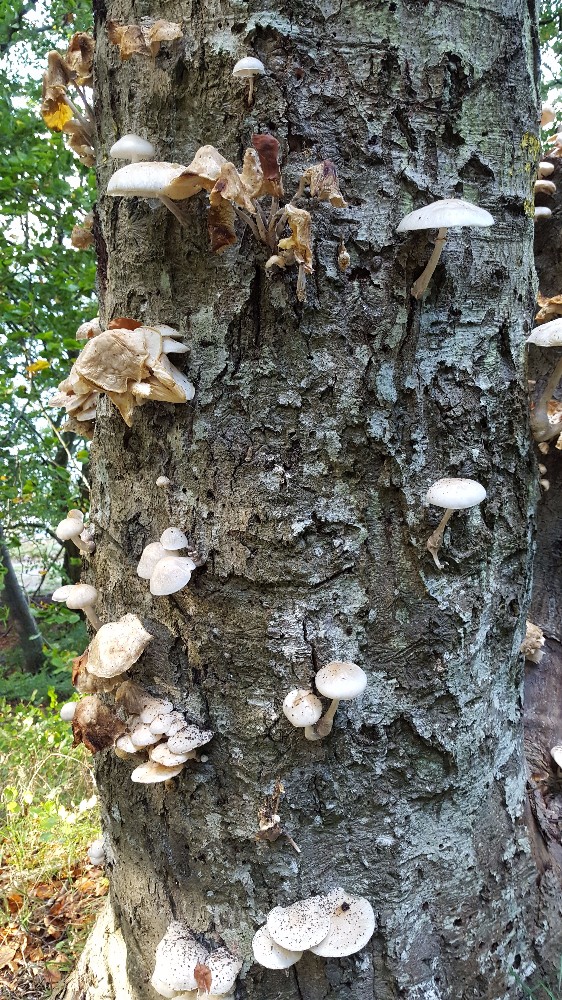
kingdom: Fungi
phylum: Basidiomycota
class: Agaricomycetes
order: Agaricales
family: Physalacriaceae
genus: Mucidula
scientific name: Mucidula mucida
